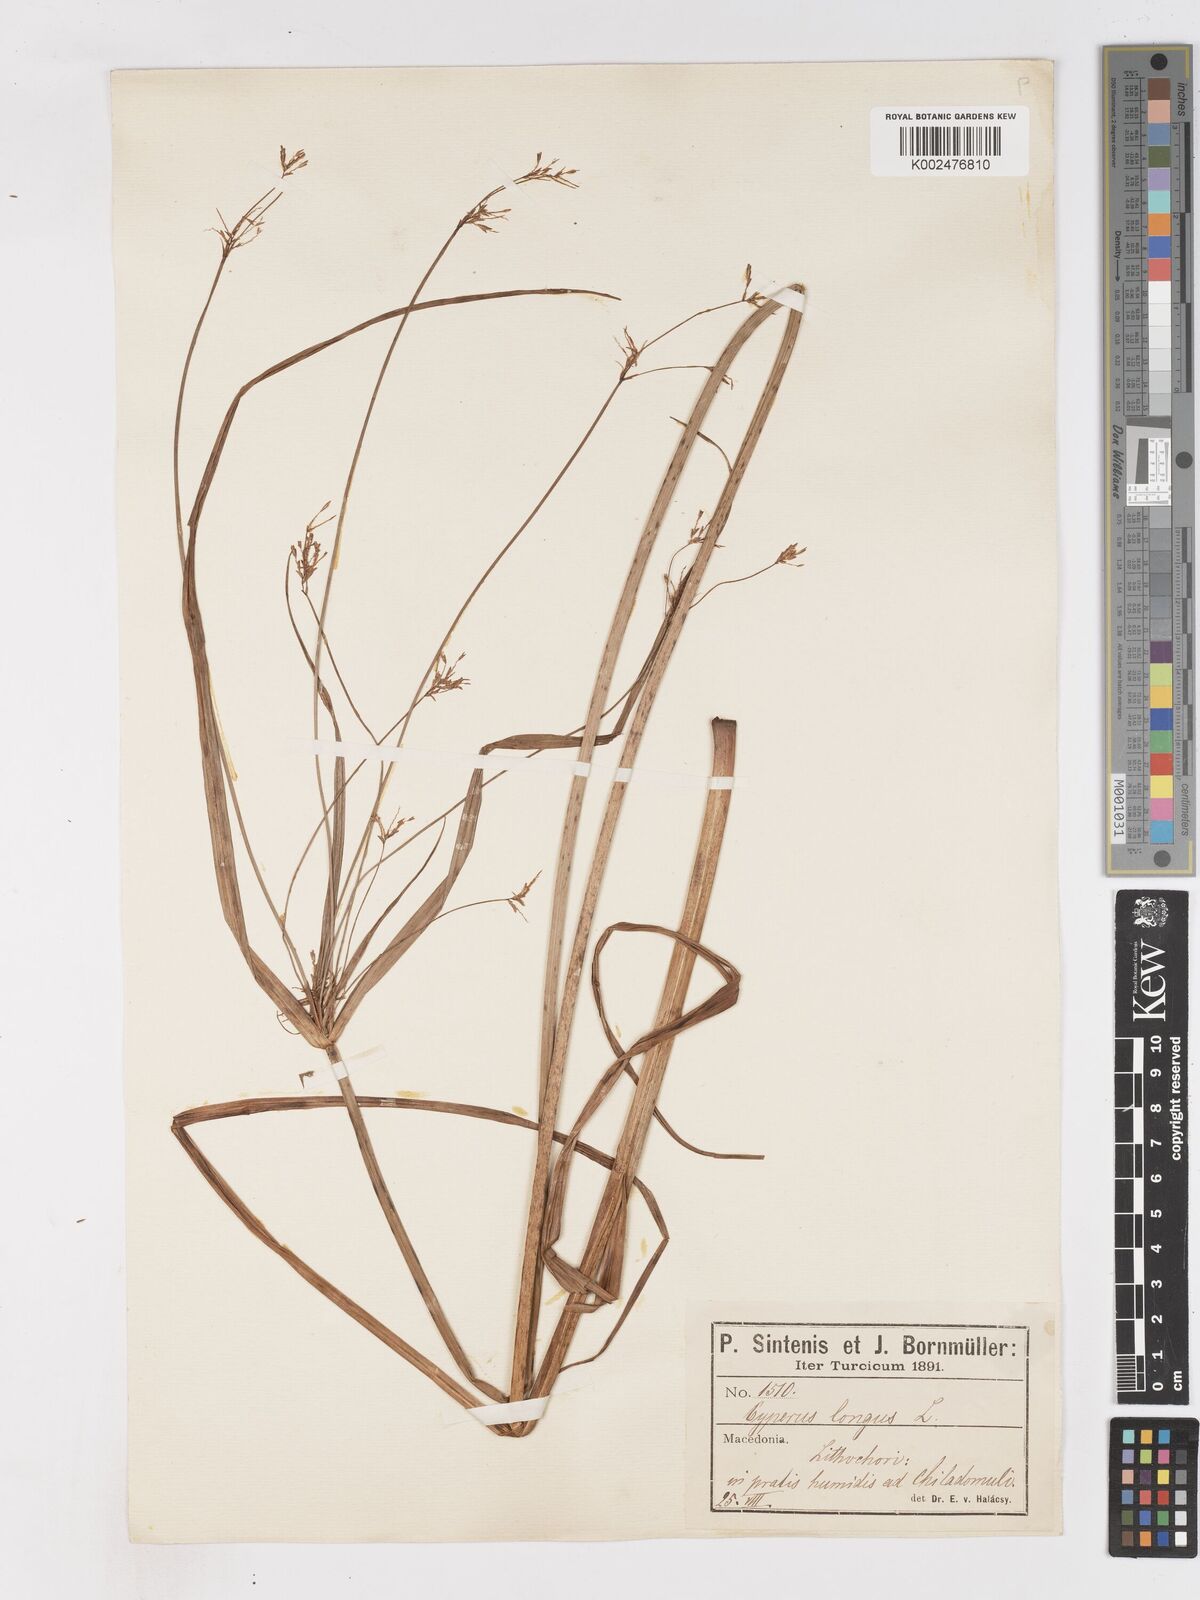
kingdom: Plantae
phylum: Tracheophyta
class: Liliopsida
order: Poales
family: Cyperaceae
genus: Cyperus
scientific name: Cyperus longus
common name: Galingale
